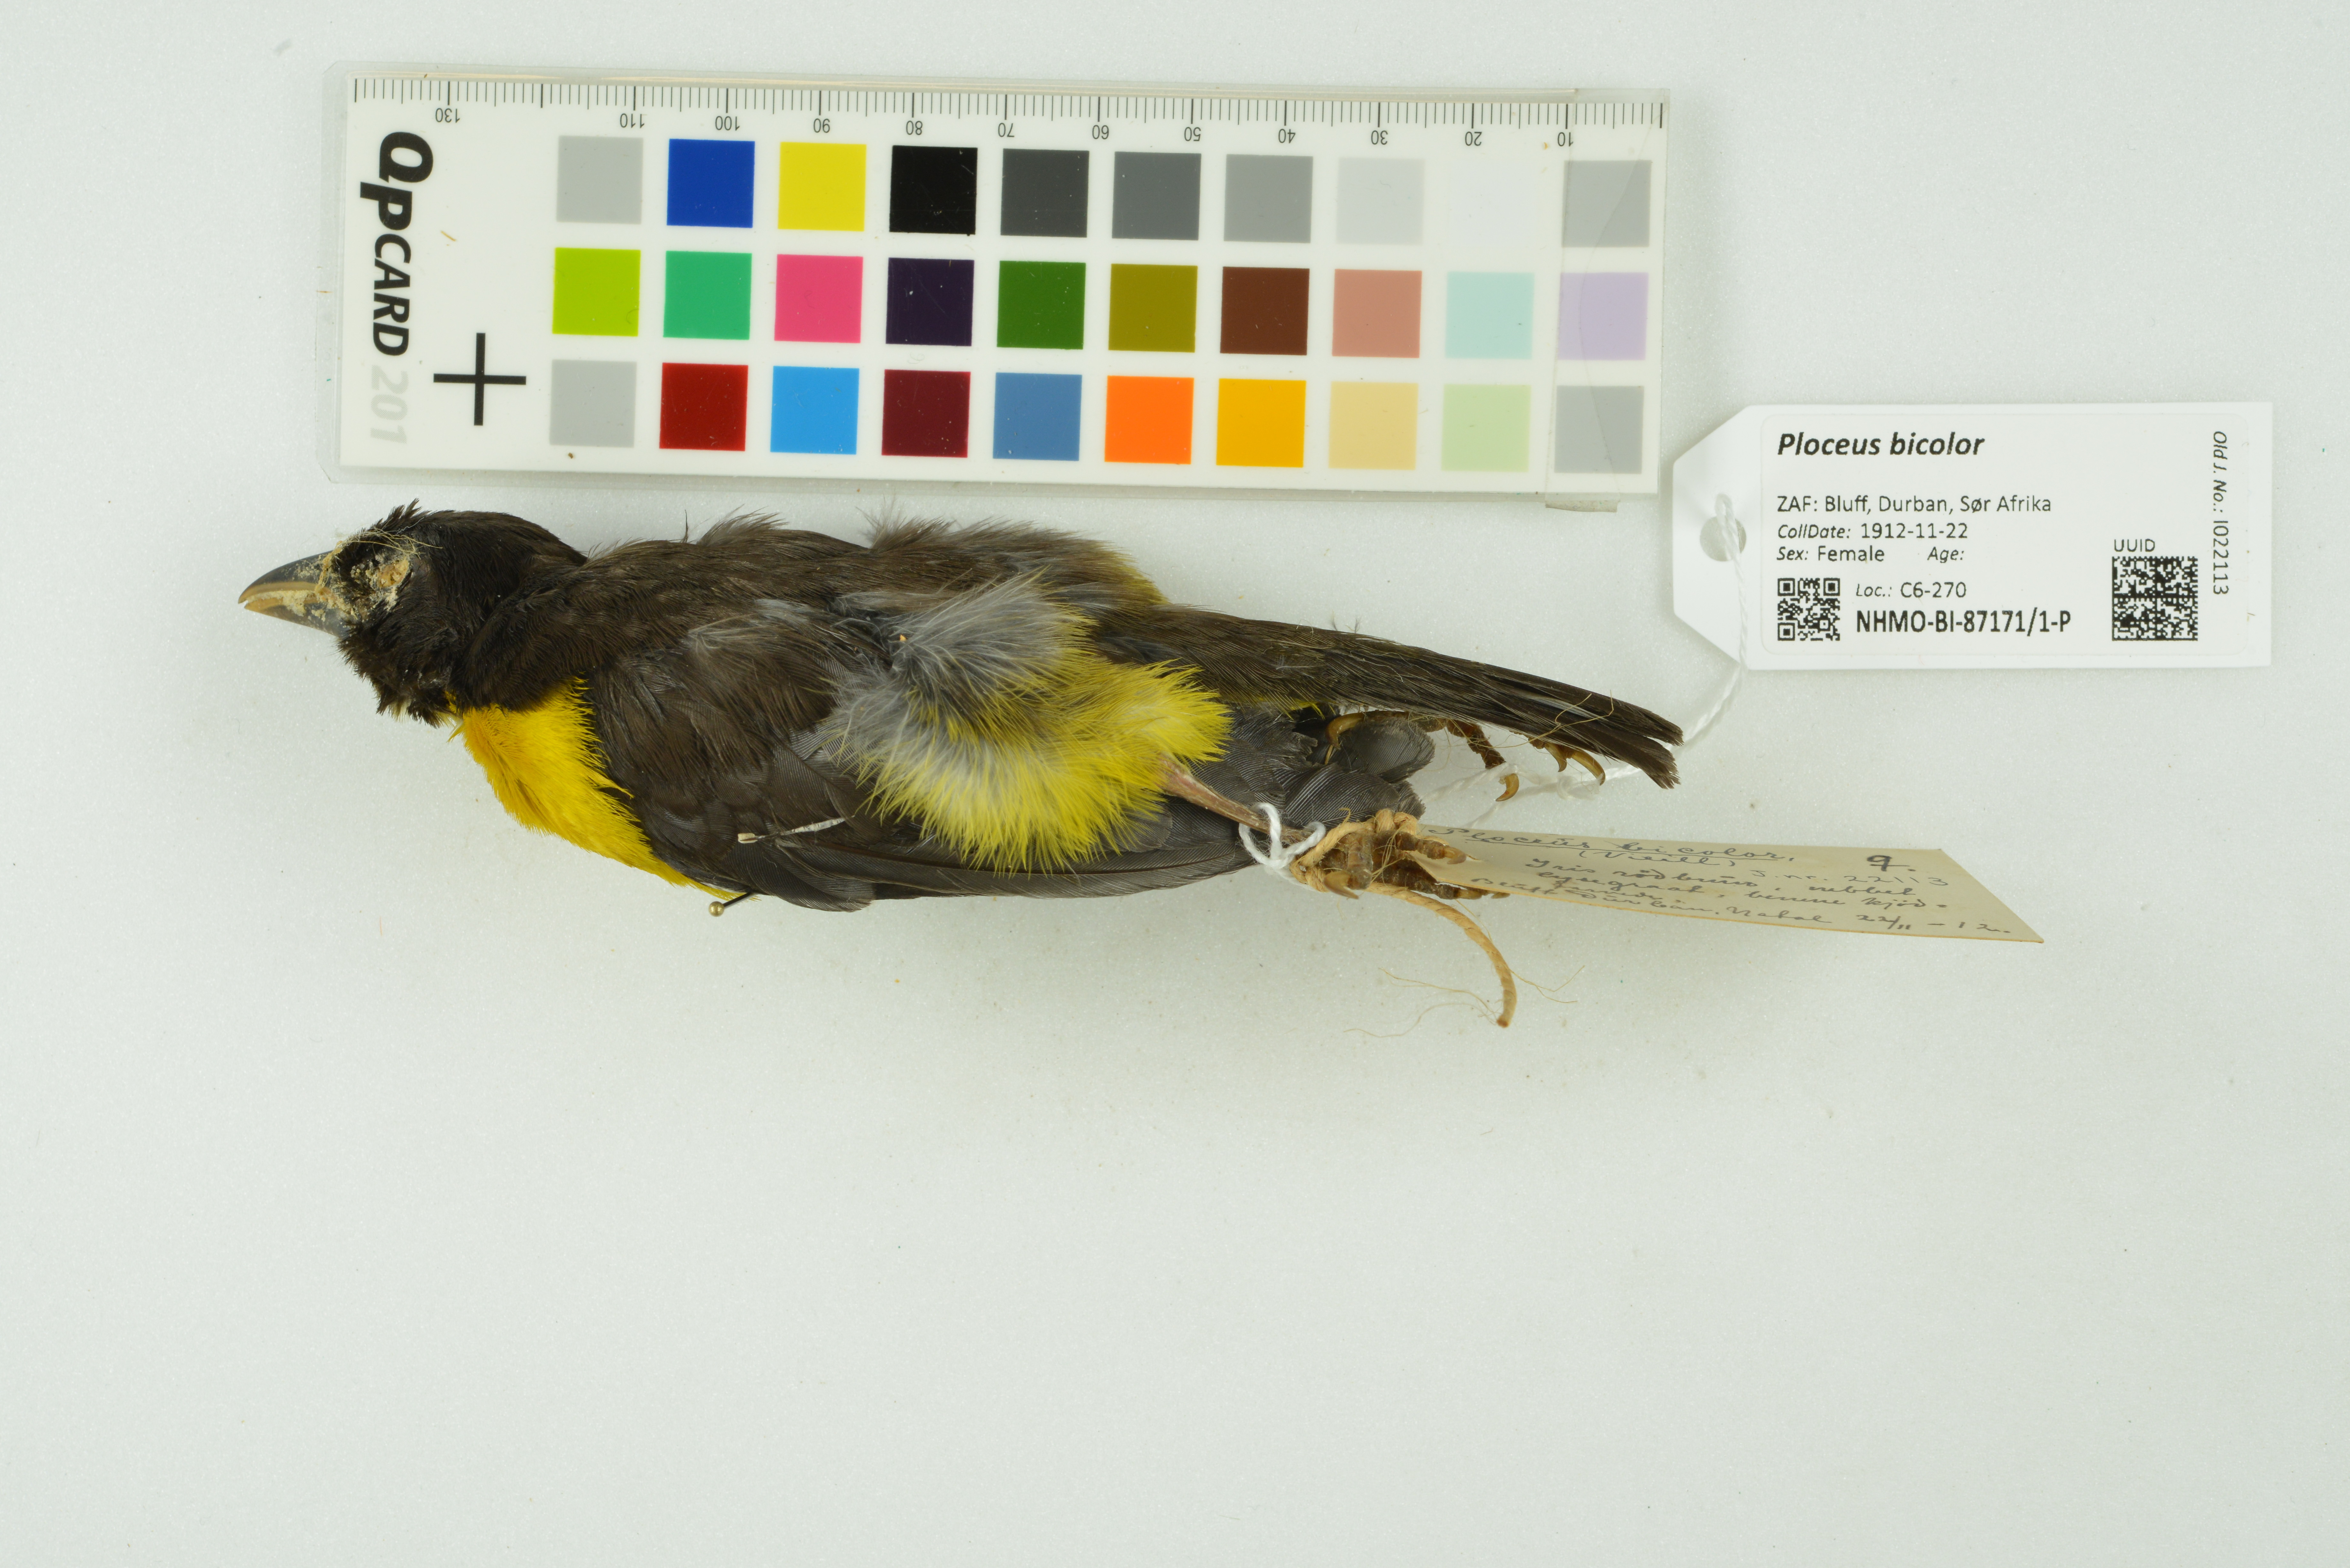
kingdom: Animalia
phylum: Chordata
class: Aves
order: Passeriformes
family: Ploceidae
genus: Ploceus
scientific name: Ploceus bicolor
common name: Dark-backed weaver
